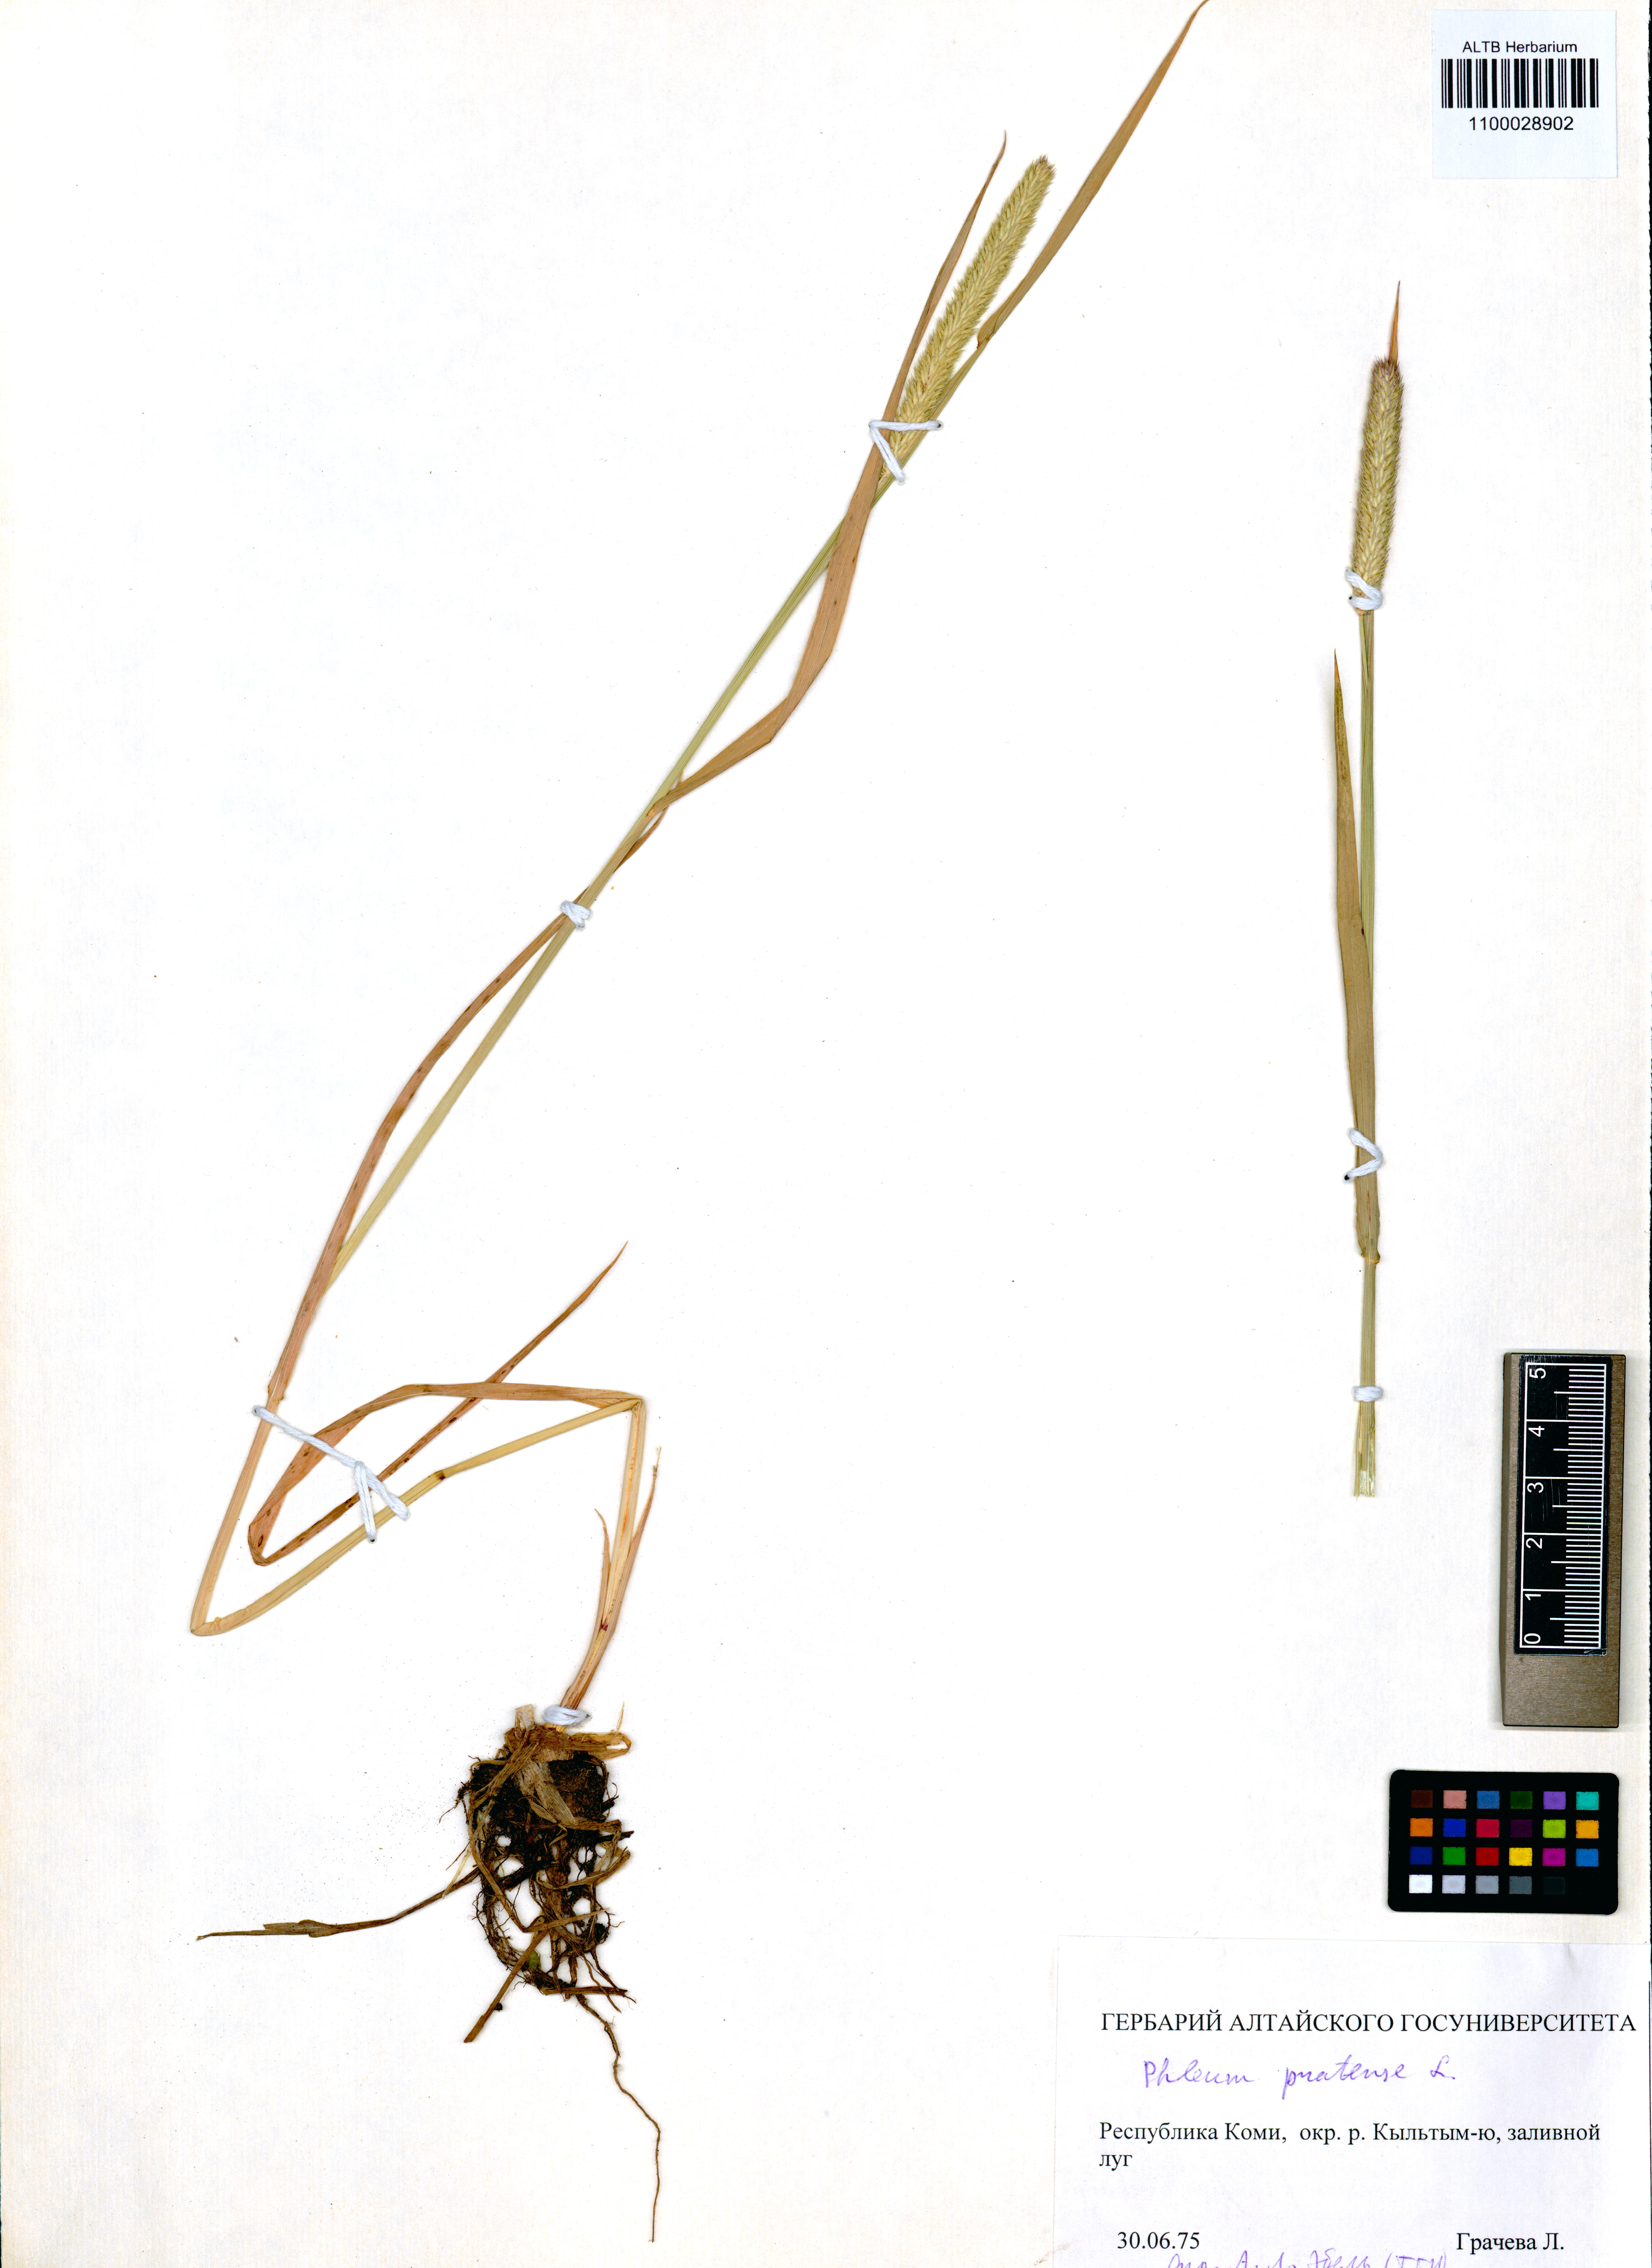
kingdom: Plantae
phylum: Tracheophyta
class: Liliopsida
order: Poales
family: Poaceae
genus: Phleum
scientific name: Phleum pratense
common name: Timothy grass
